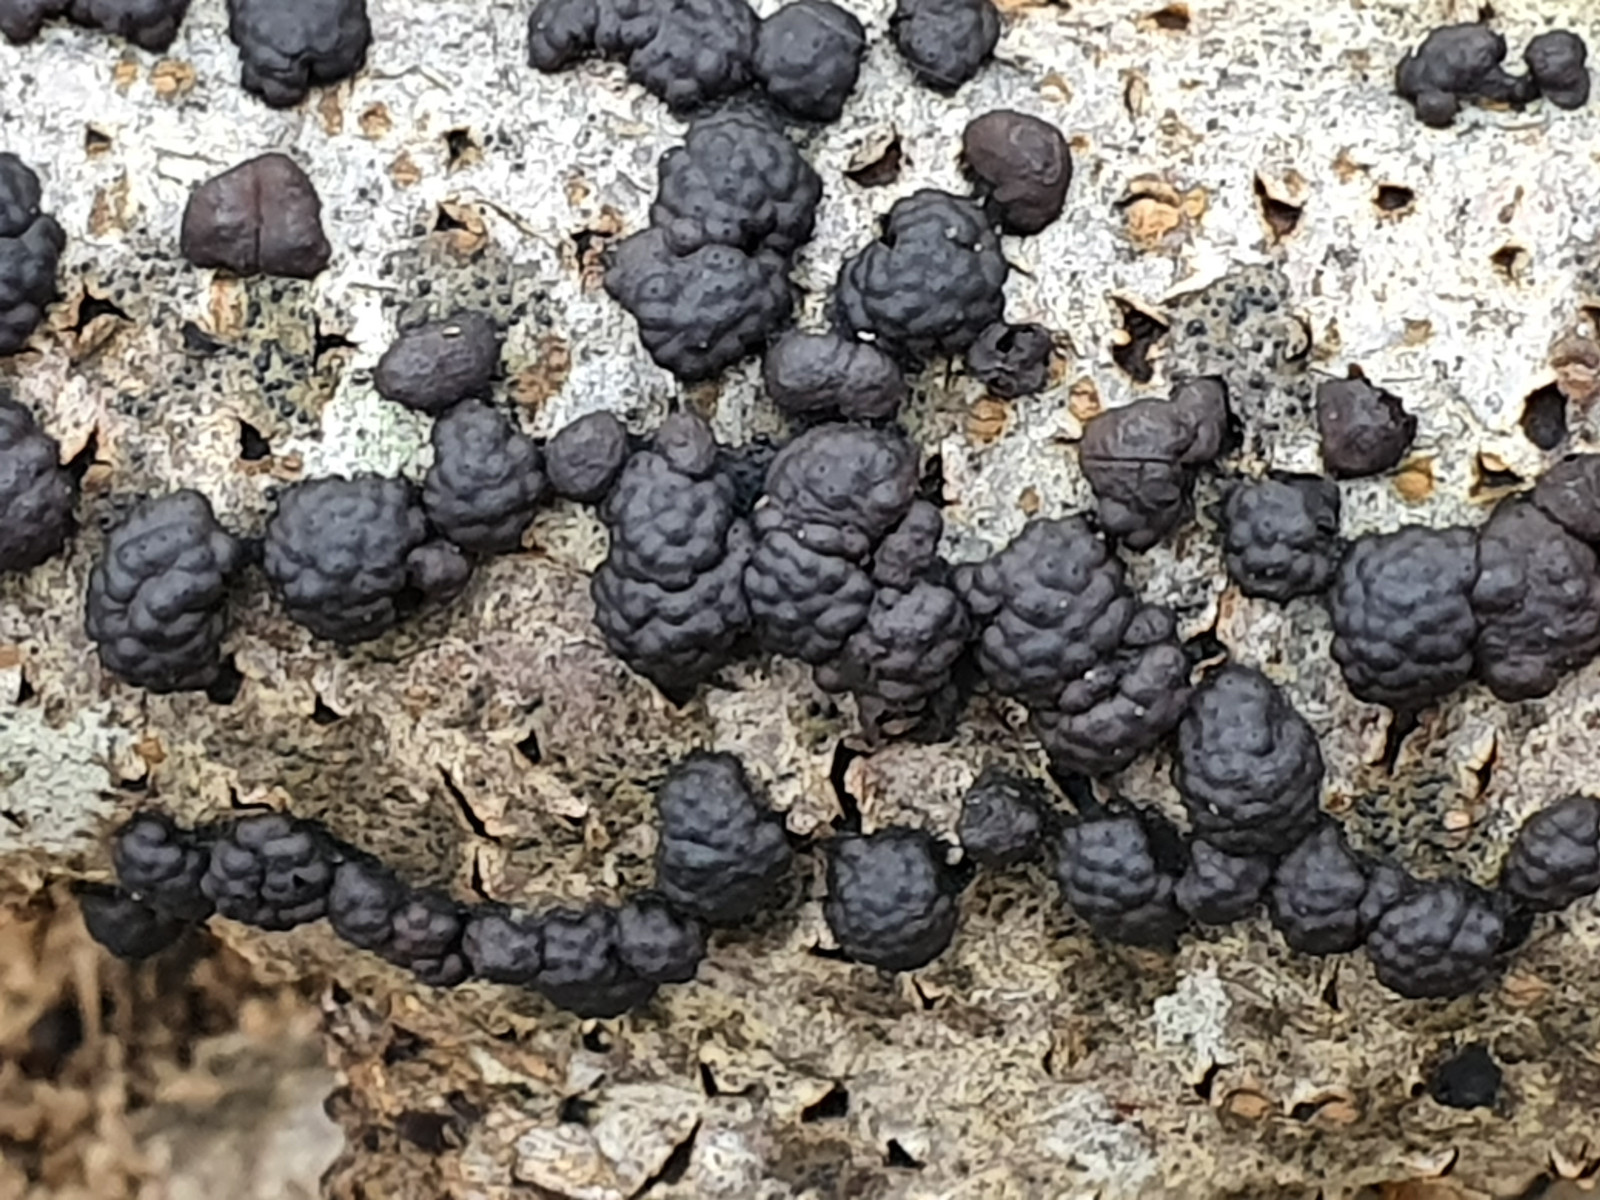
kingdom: Fungi
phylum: Ascomycota
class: Sordariomycetes
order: Xylariales
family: Hypoxylaceae
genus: Jackrogersella
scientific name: Jackrogersella cohaerens
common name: sammenflydende kulbær
